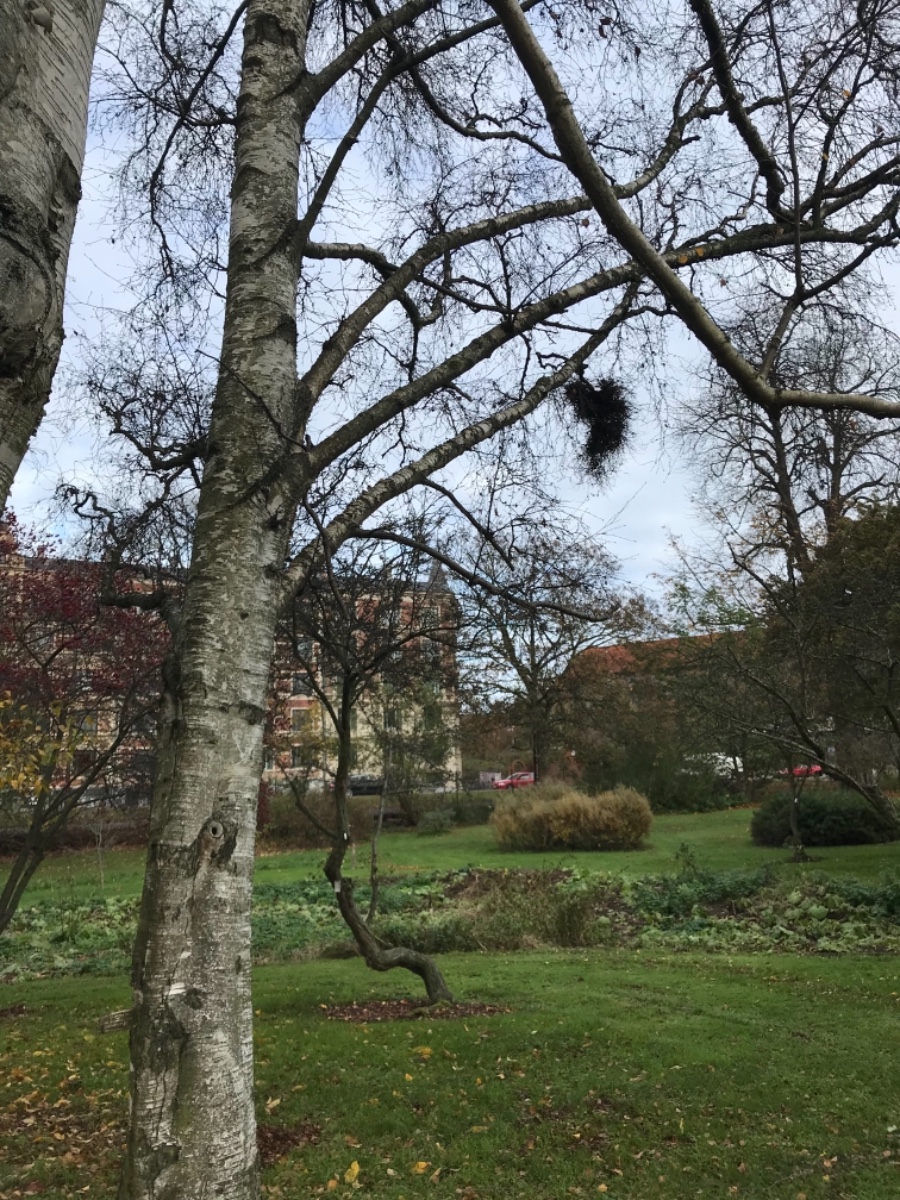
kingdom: Fungi
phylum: Ascomycota
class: Taphrinomycetes
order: Taphrinales
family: Taphrinaceae
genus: Taphrina
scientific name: Taphrina betulina
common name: hekse-sækdug
